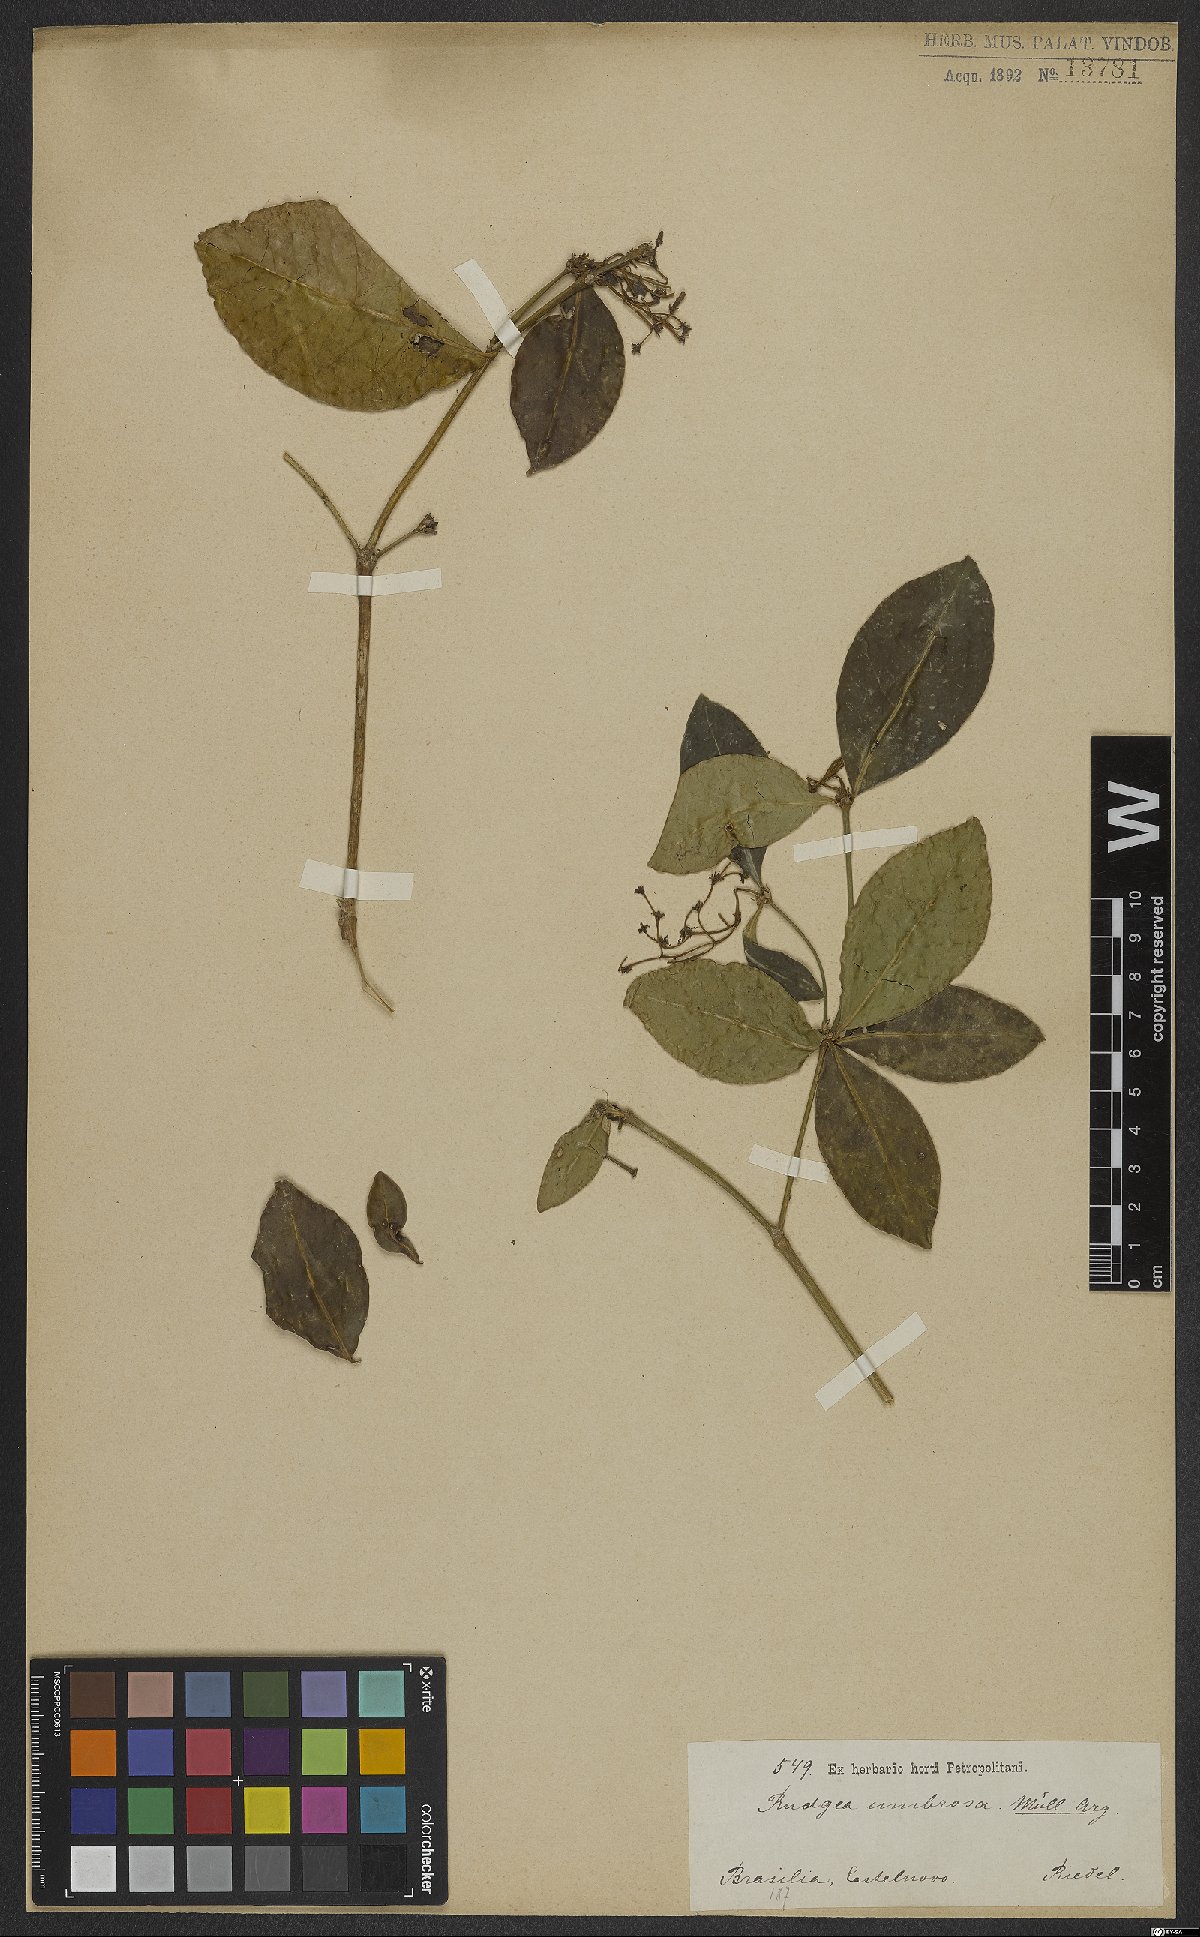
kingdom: Plantae
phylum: Tracheophyta
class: Magnoliopsida
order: Gentianales
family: Rubiaceae
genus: Rudgea
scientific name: Rudgea umbrosa
